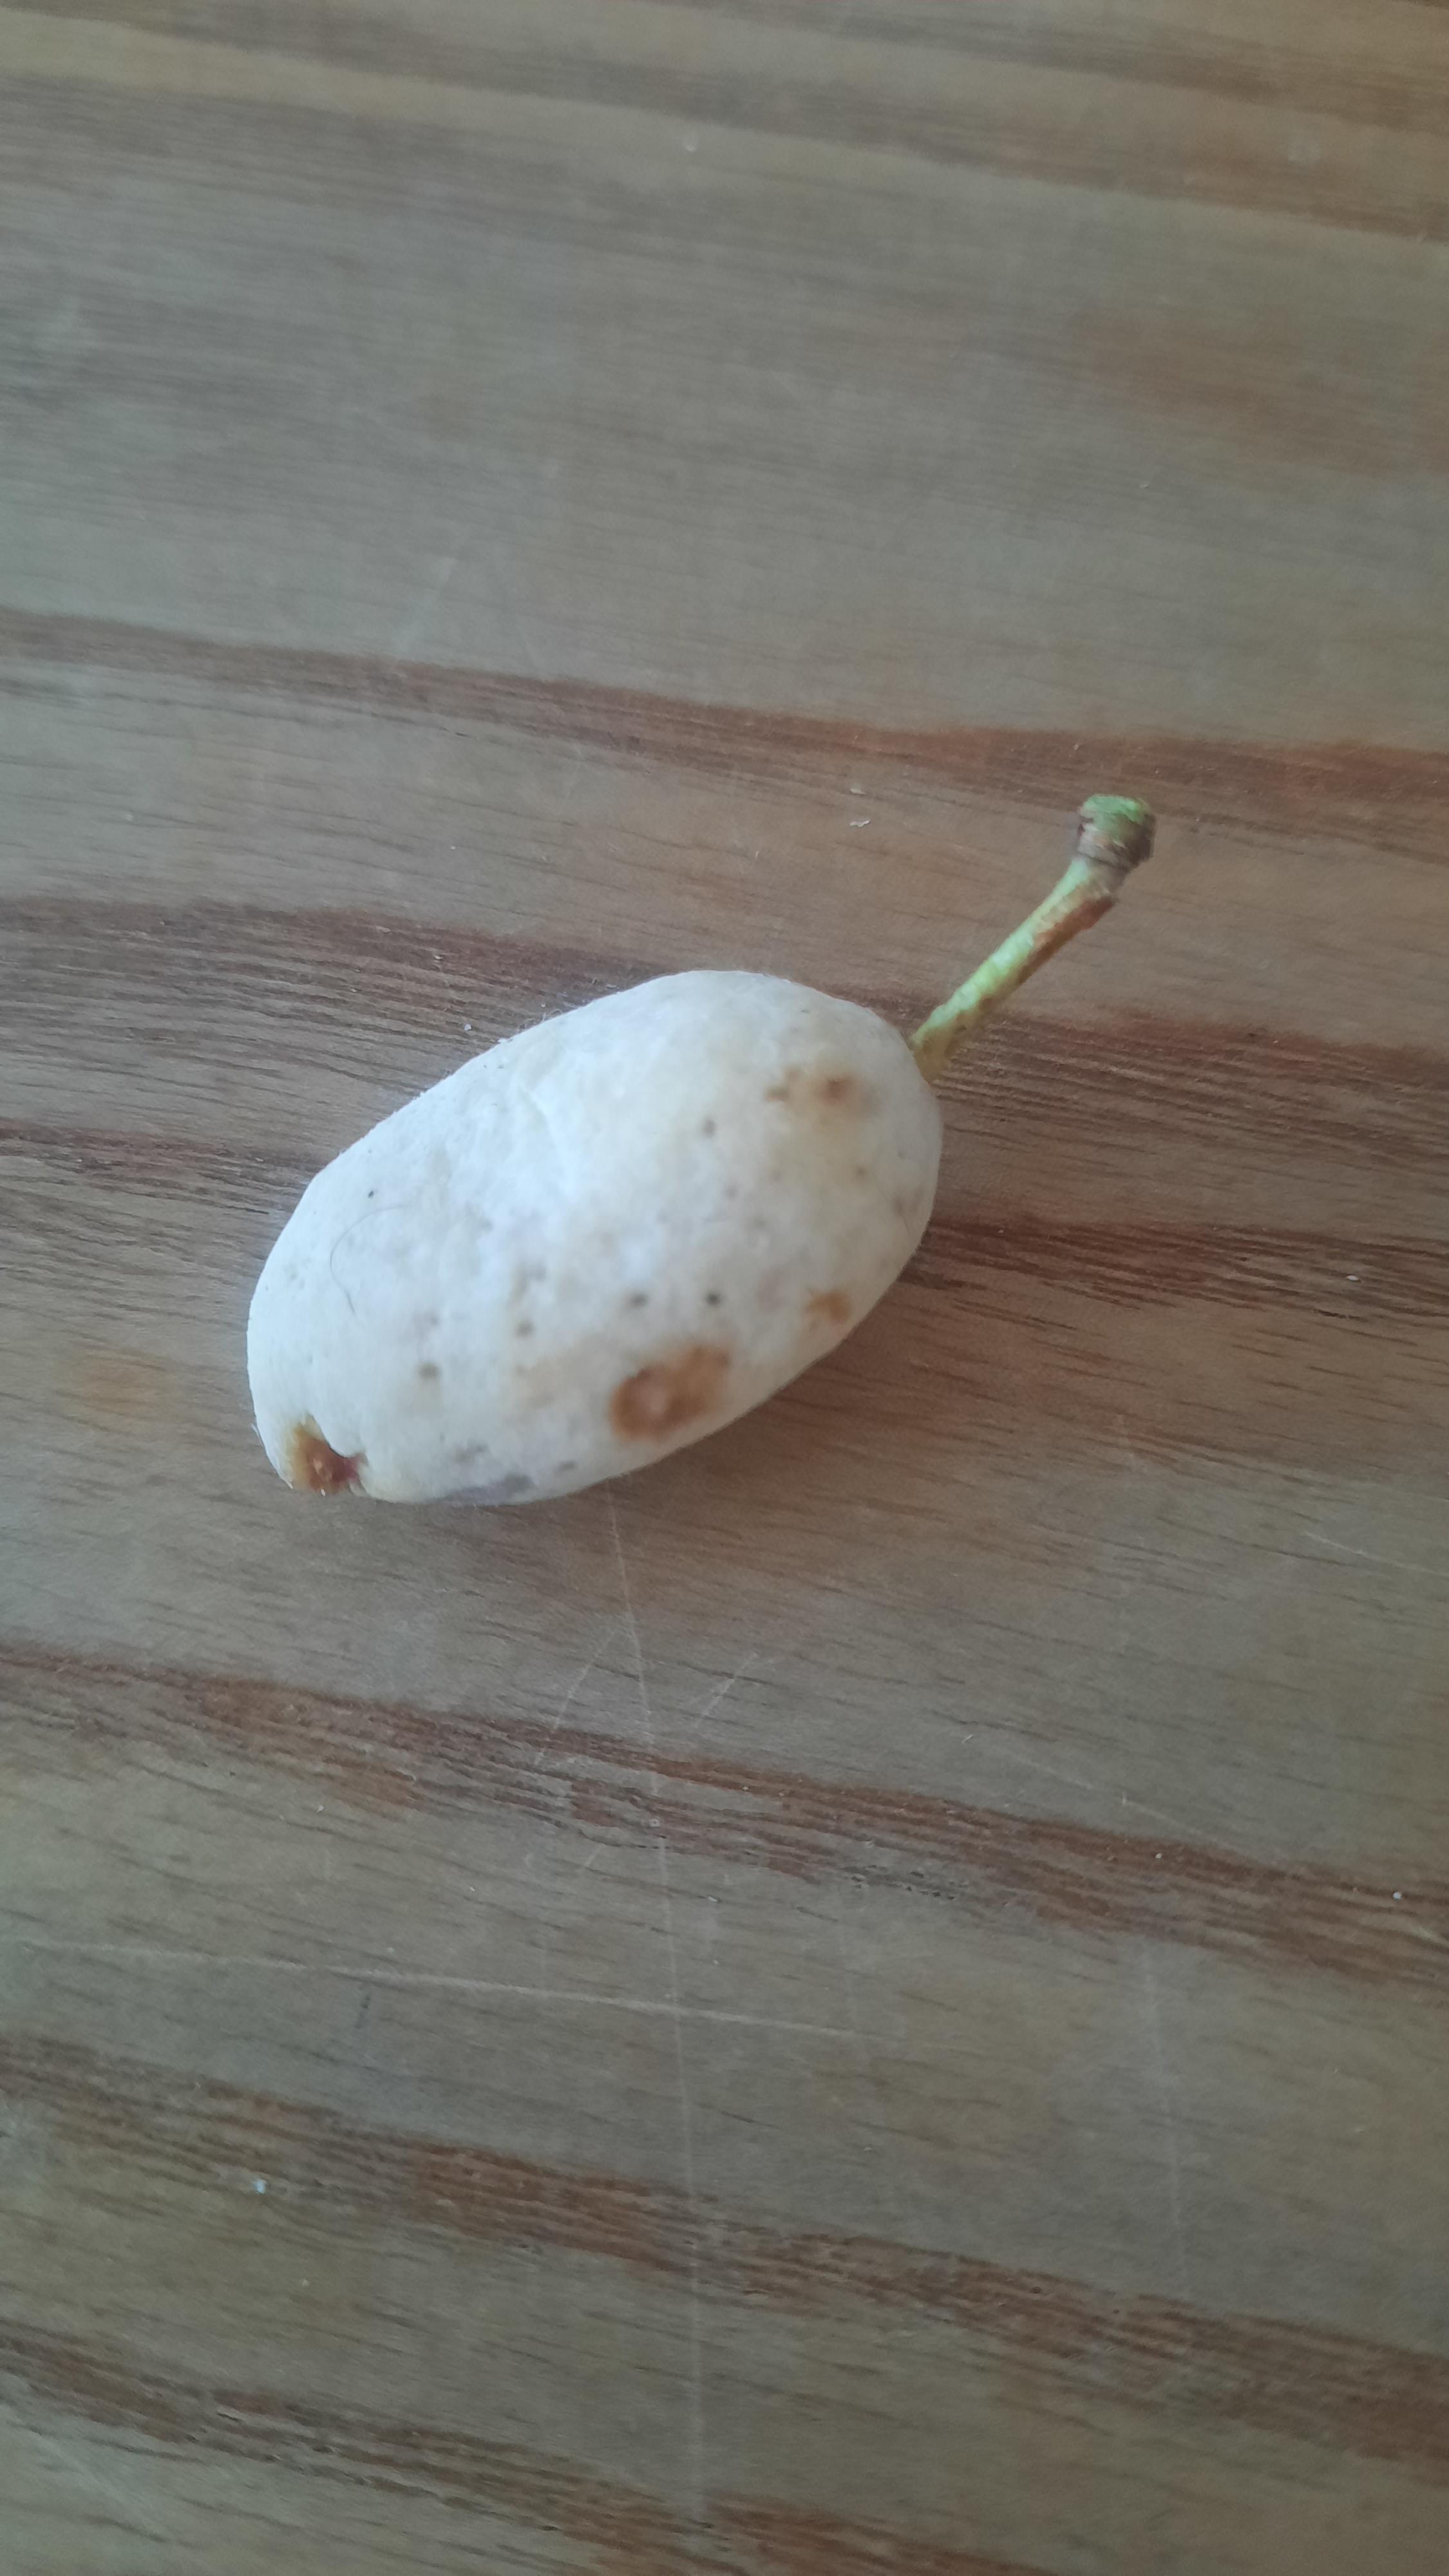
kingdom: Fungi
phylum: Ascomycota
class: Taphrinomycetes
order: Taphrinales
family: Taphrinaceae
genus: Taphrina
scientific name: Taphrina pruni
